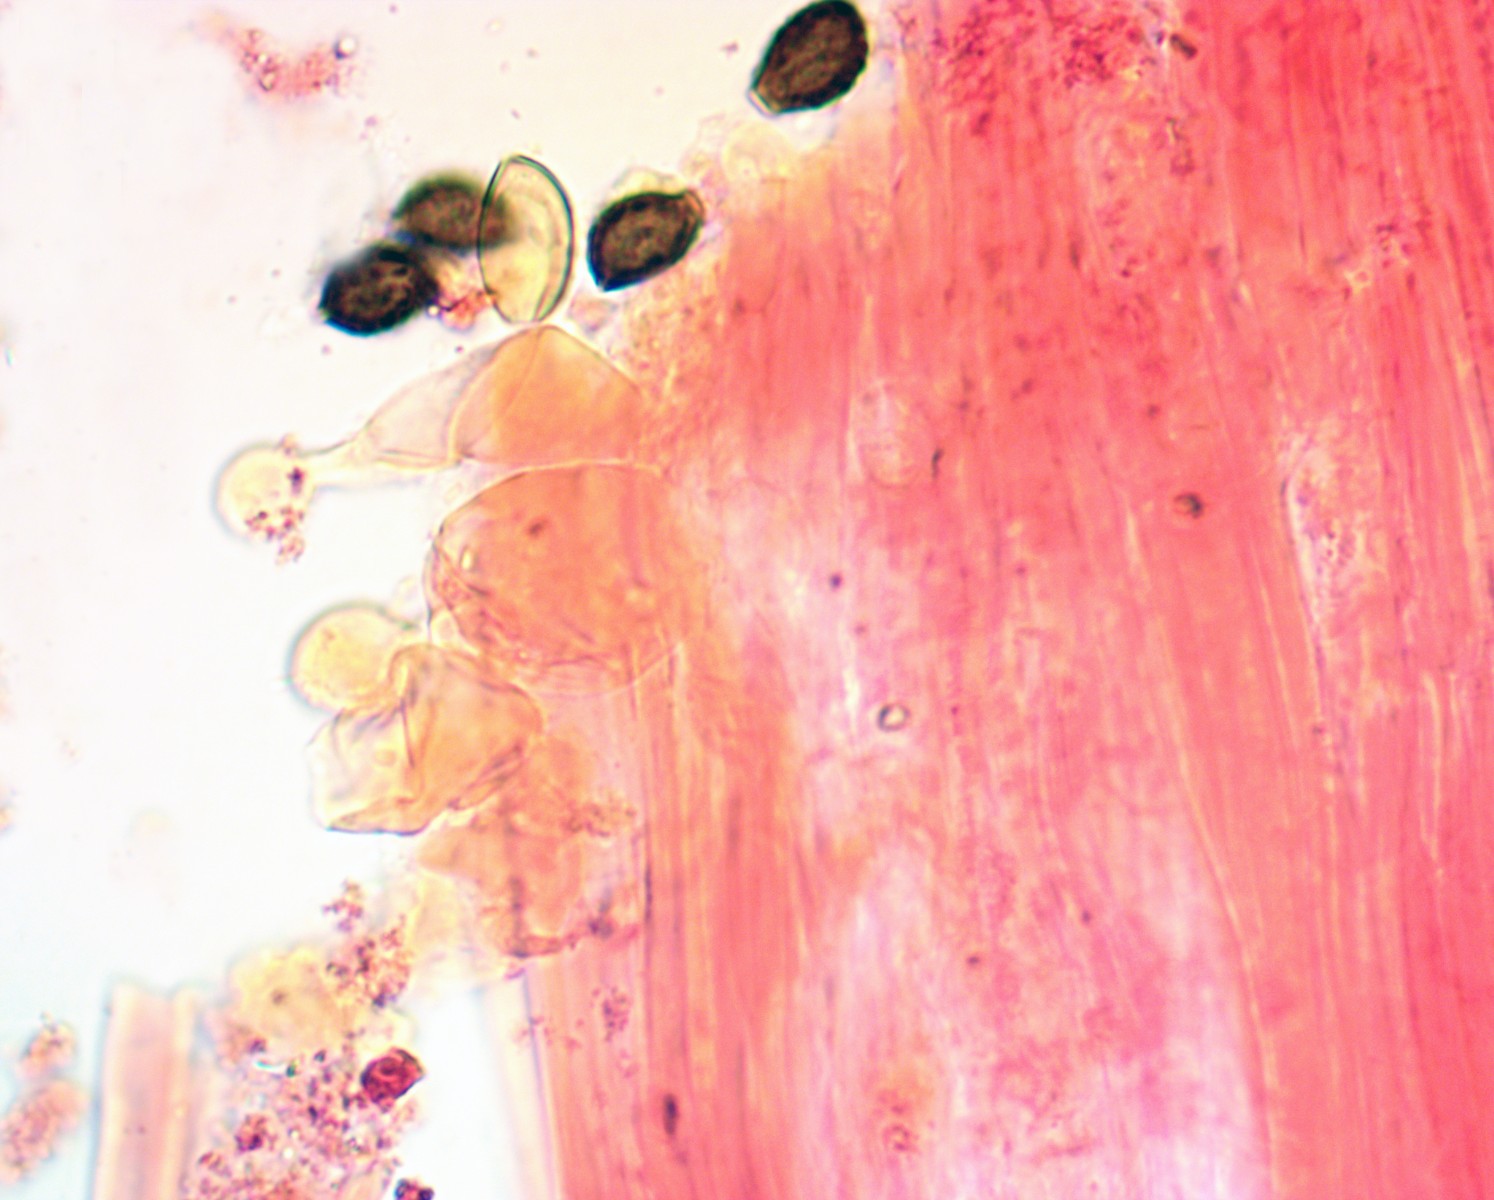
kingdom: Fungi
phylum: Basidiomycota
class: Agaricomycetes
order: Agaricales
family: Bolbitiaceae
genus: Conocybe
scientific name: Conocybe
